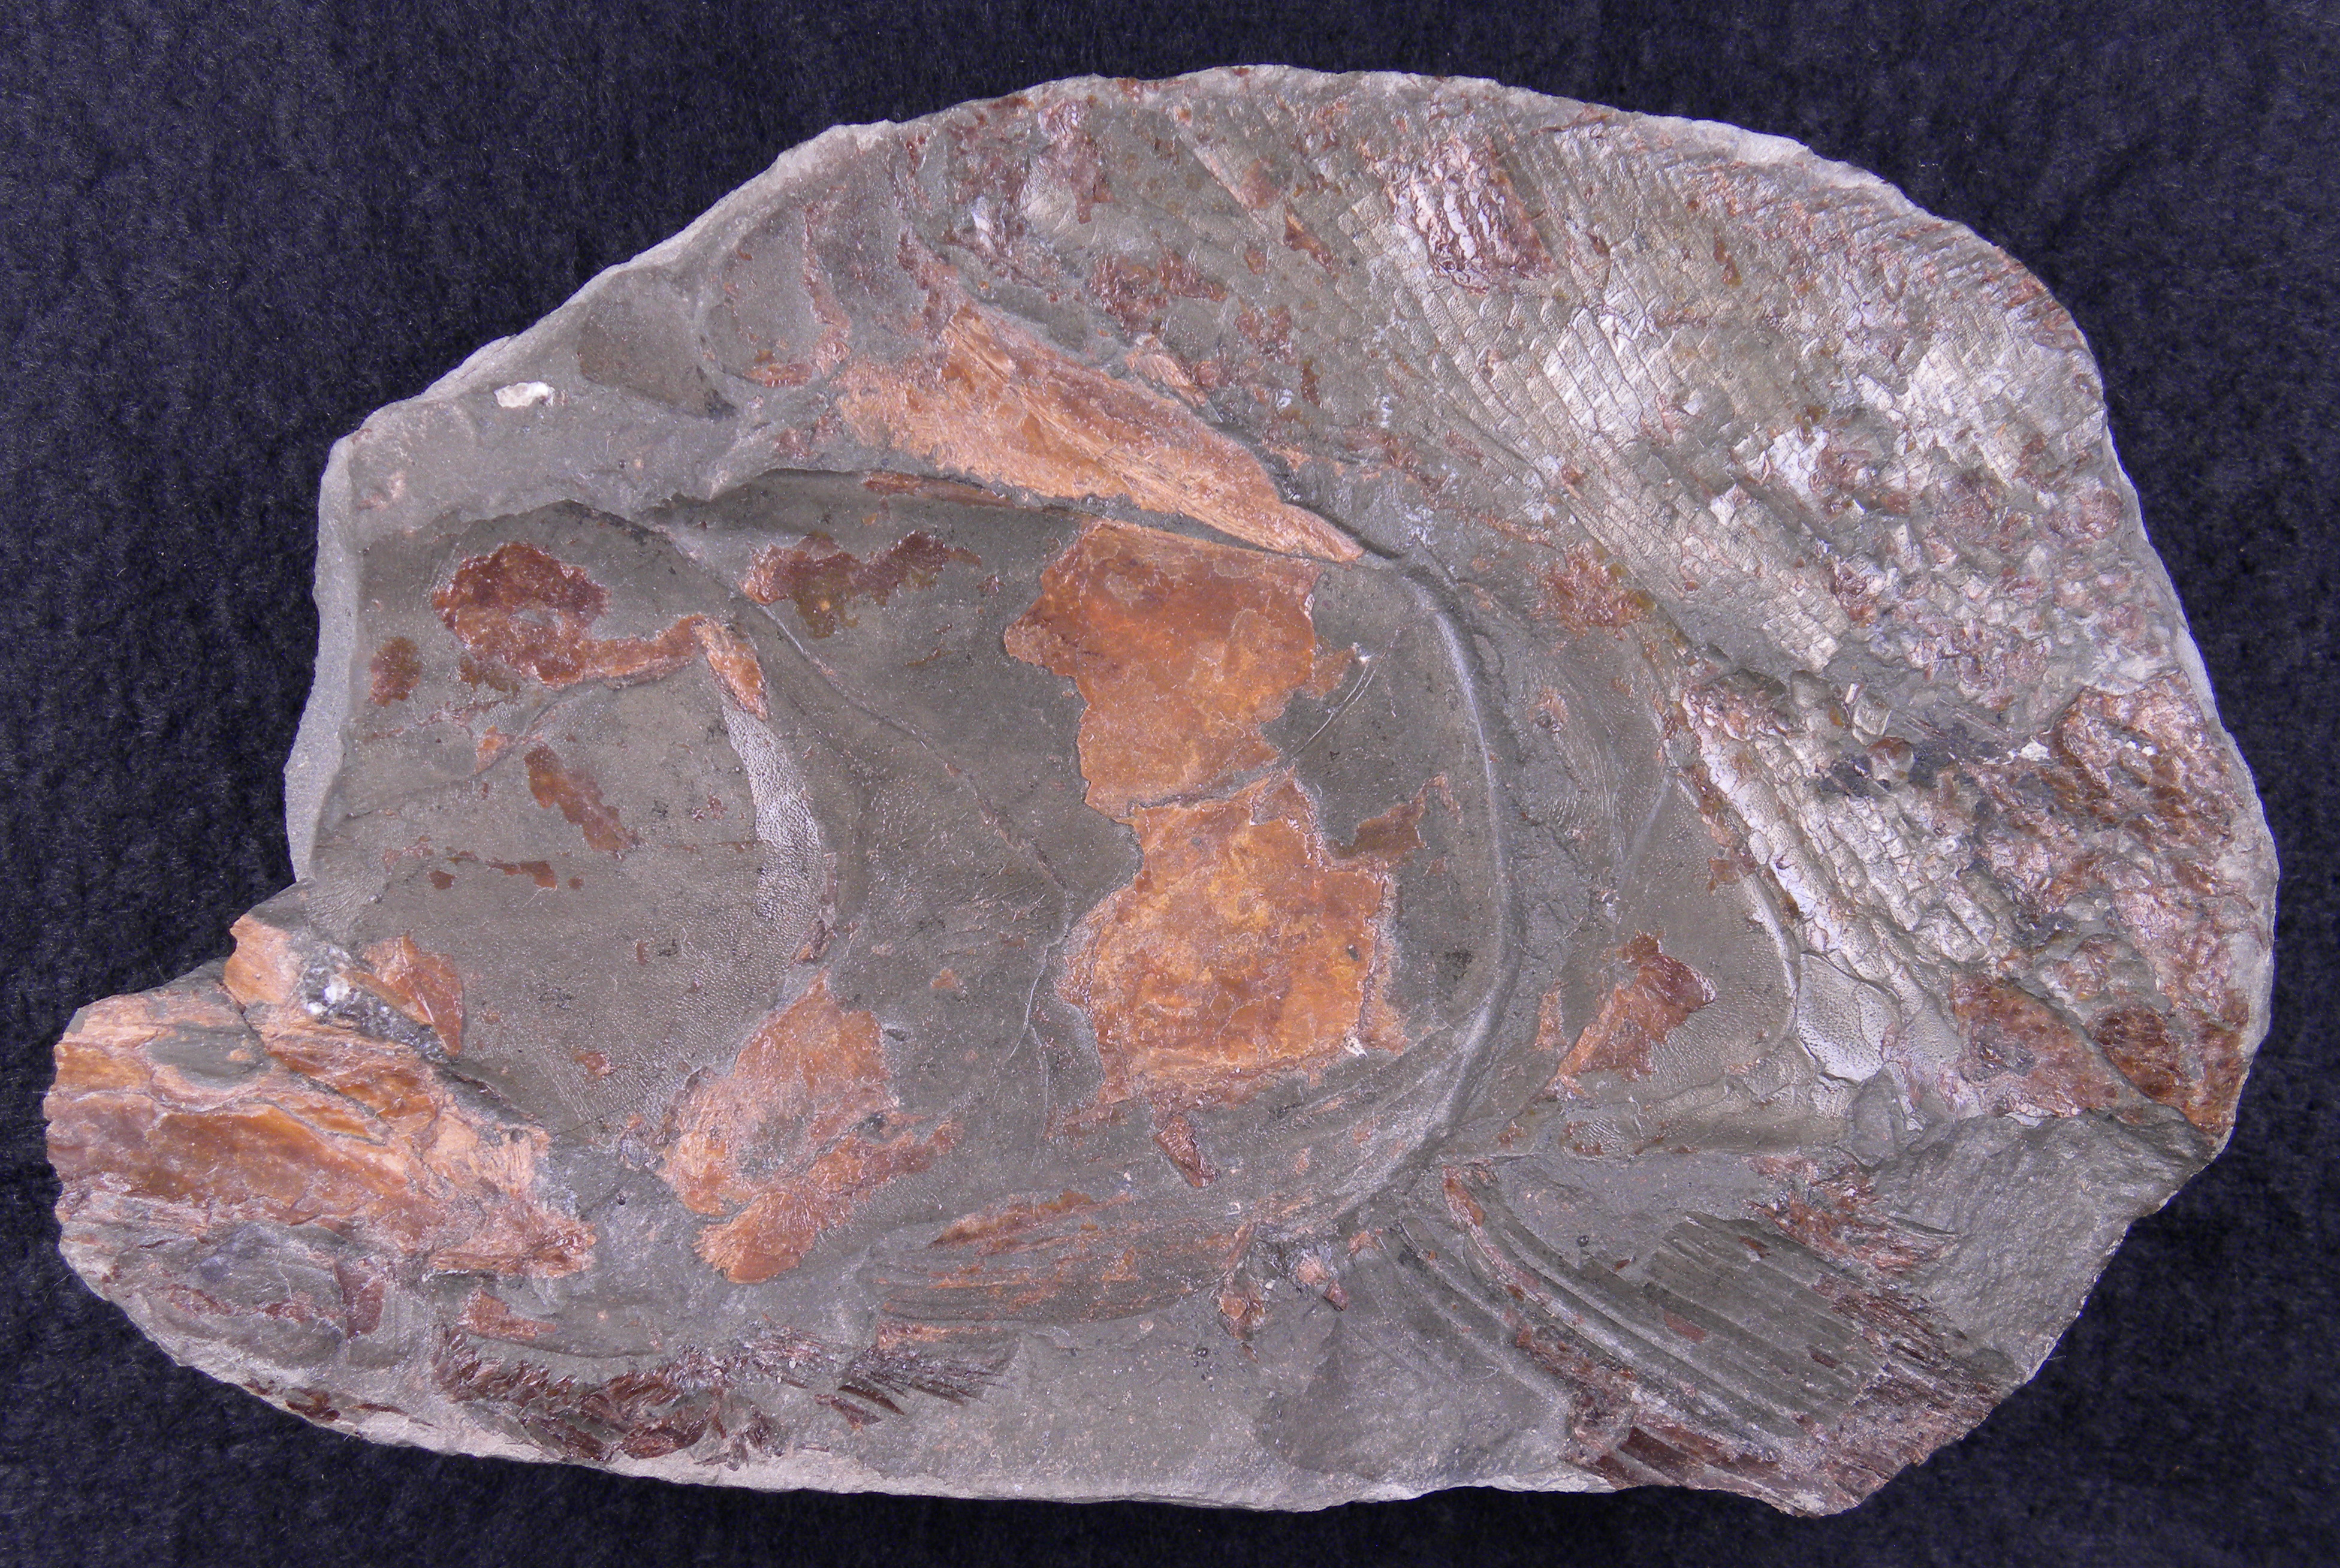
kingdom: Animalia
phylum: Chordata
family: Pachycormidae
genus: Pachycormus
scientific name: Pachycormus macropterus
